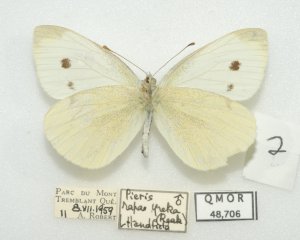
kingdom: Animalia
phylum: Arthropoda
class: Insecta
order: Lepidoptera
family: Pieridae
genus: Pieris
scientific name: Pieris rapae
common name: Cabbage White
